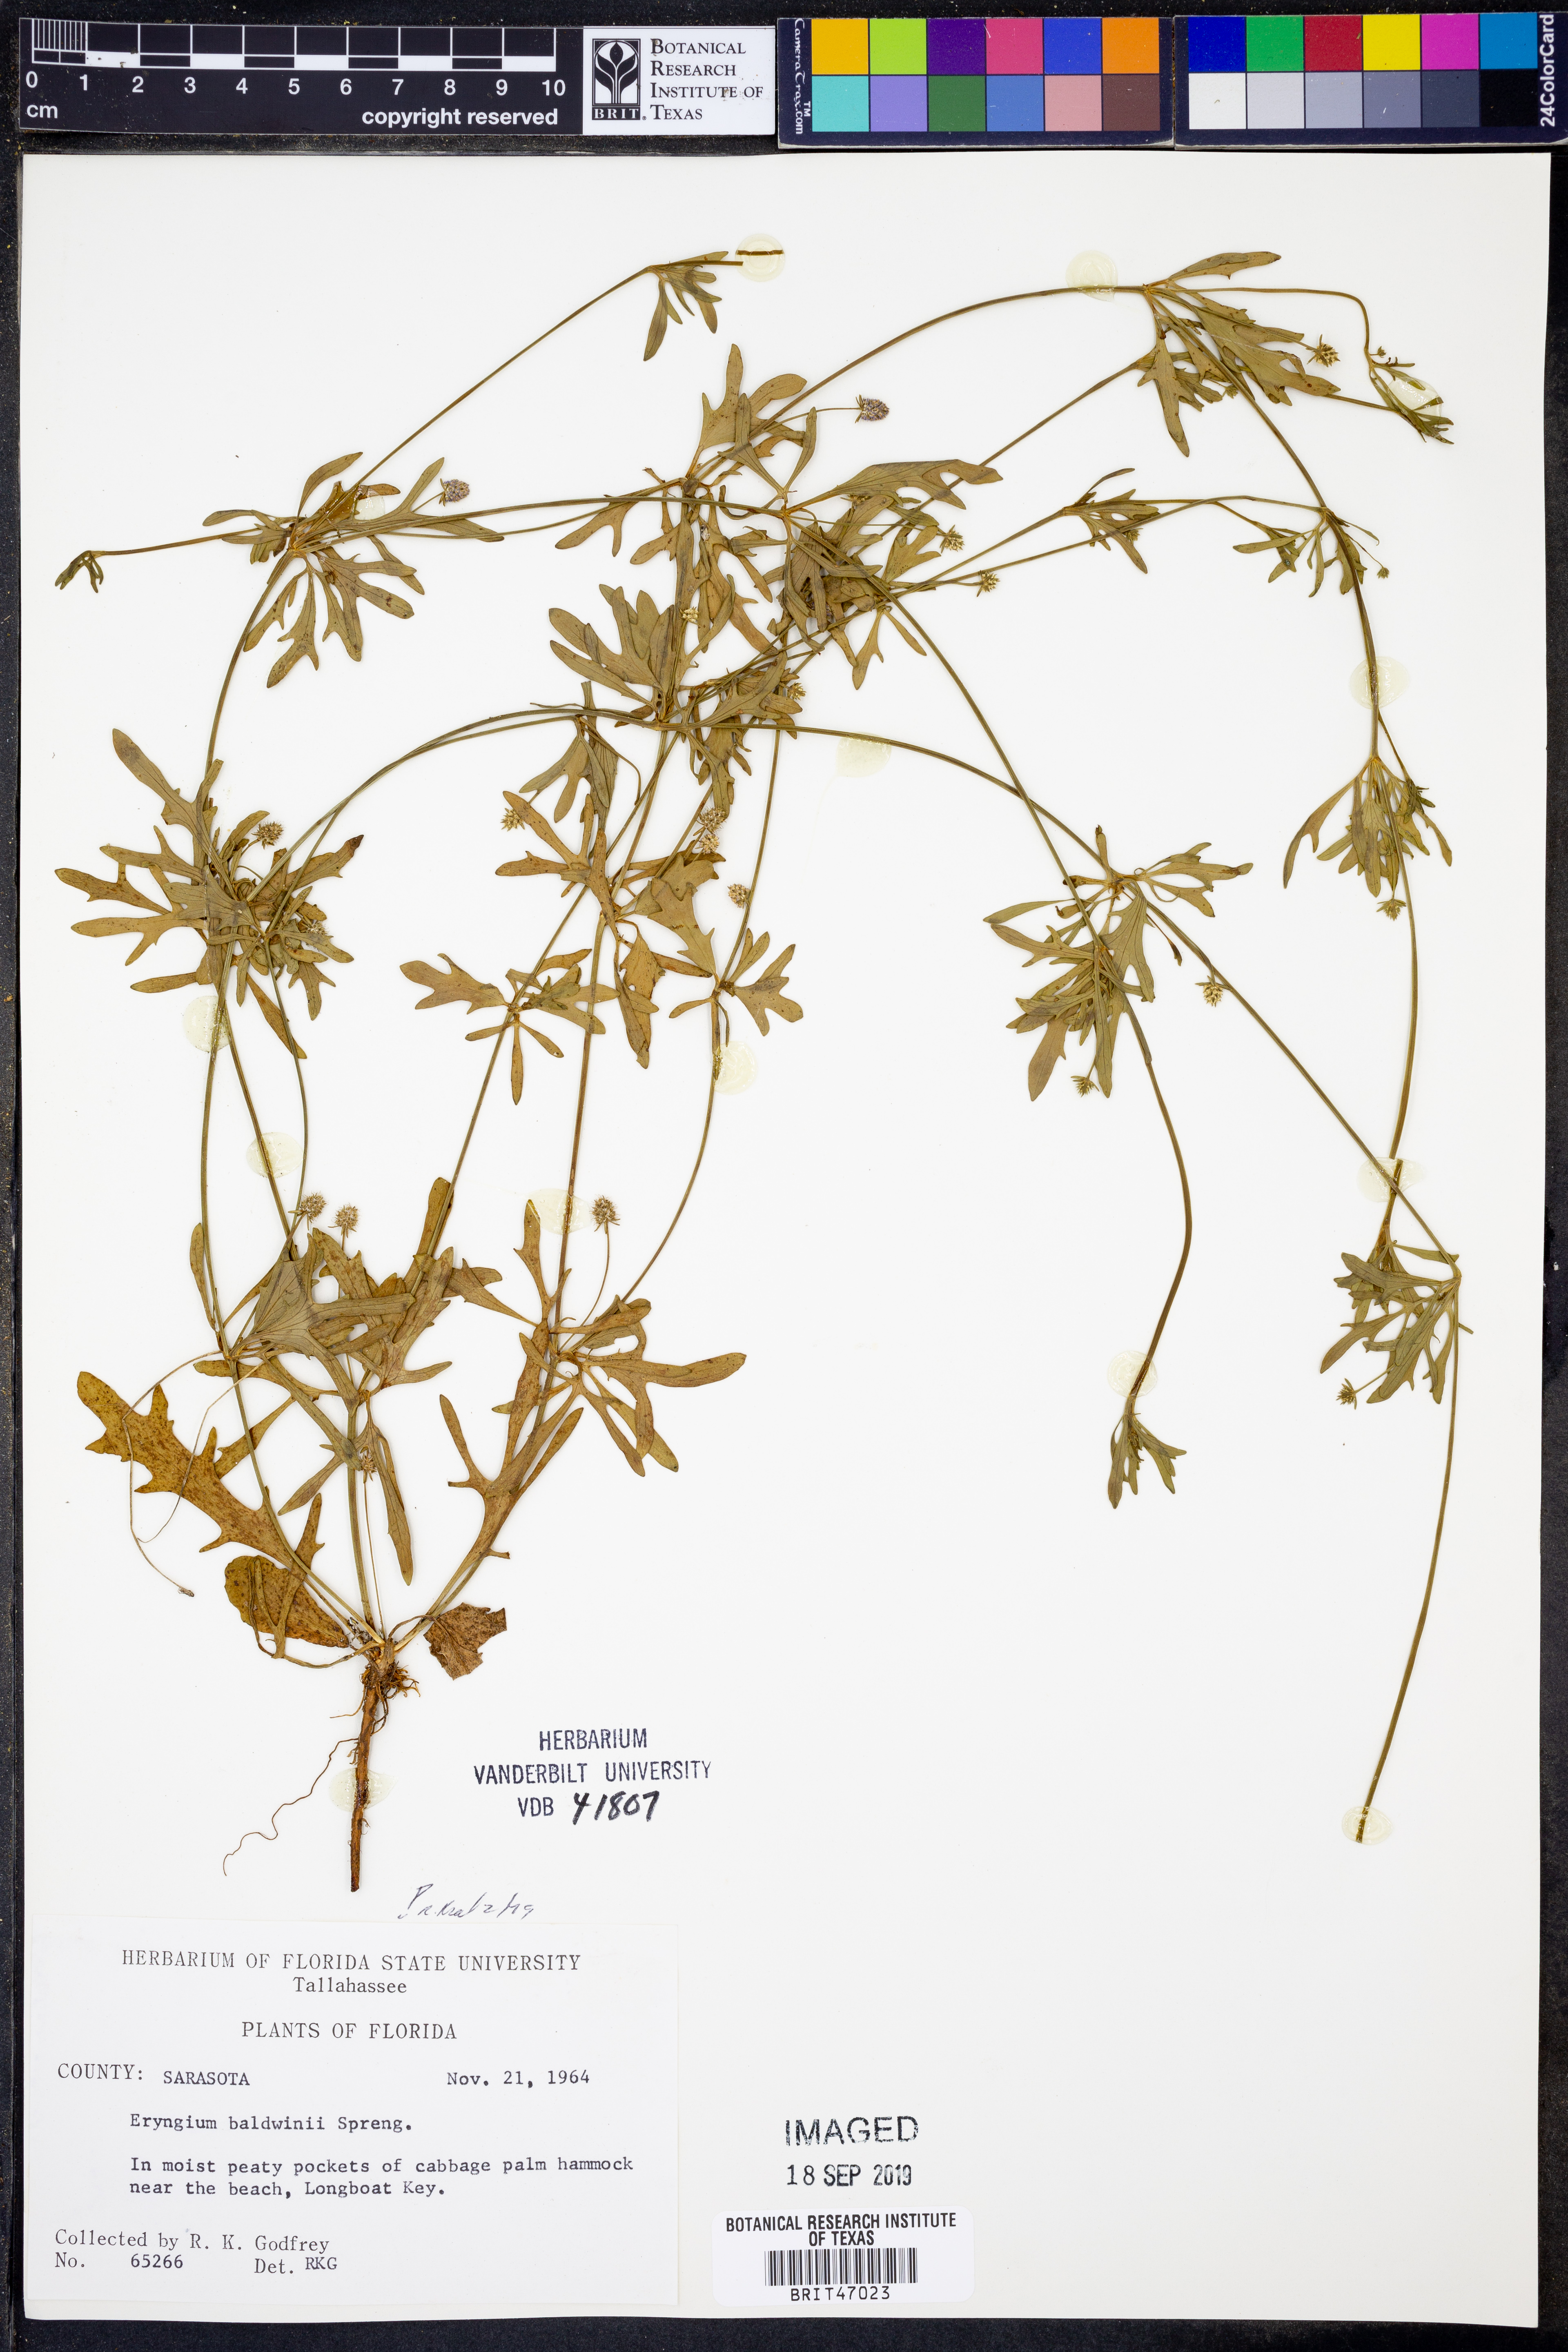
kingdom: Plantae
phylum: Tracheophyta
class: Magnoliopsida
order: Apiales
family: Apiaceae
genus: Eryngium
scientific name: Eryngium baldwinii
